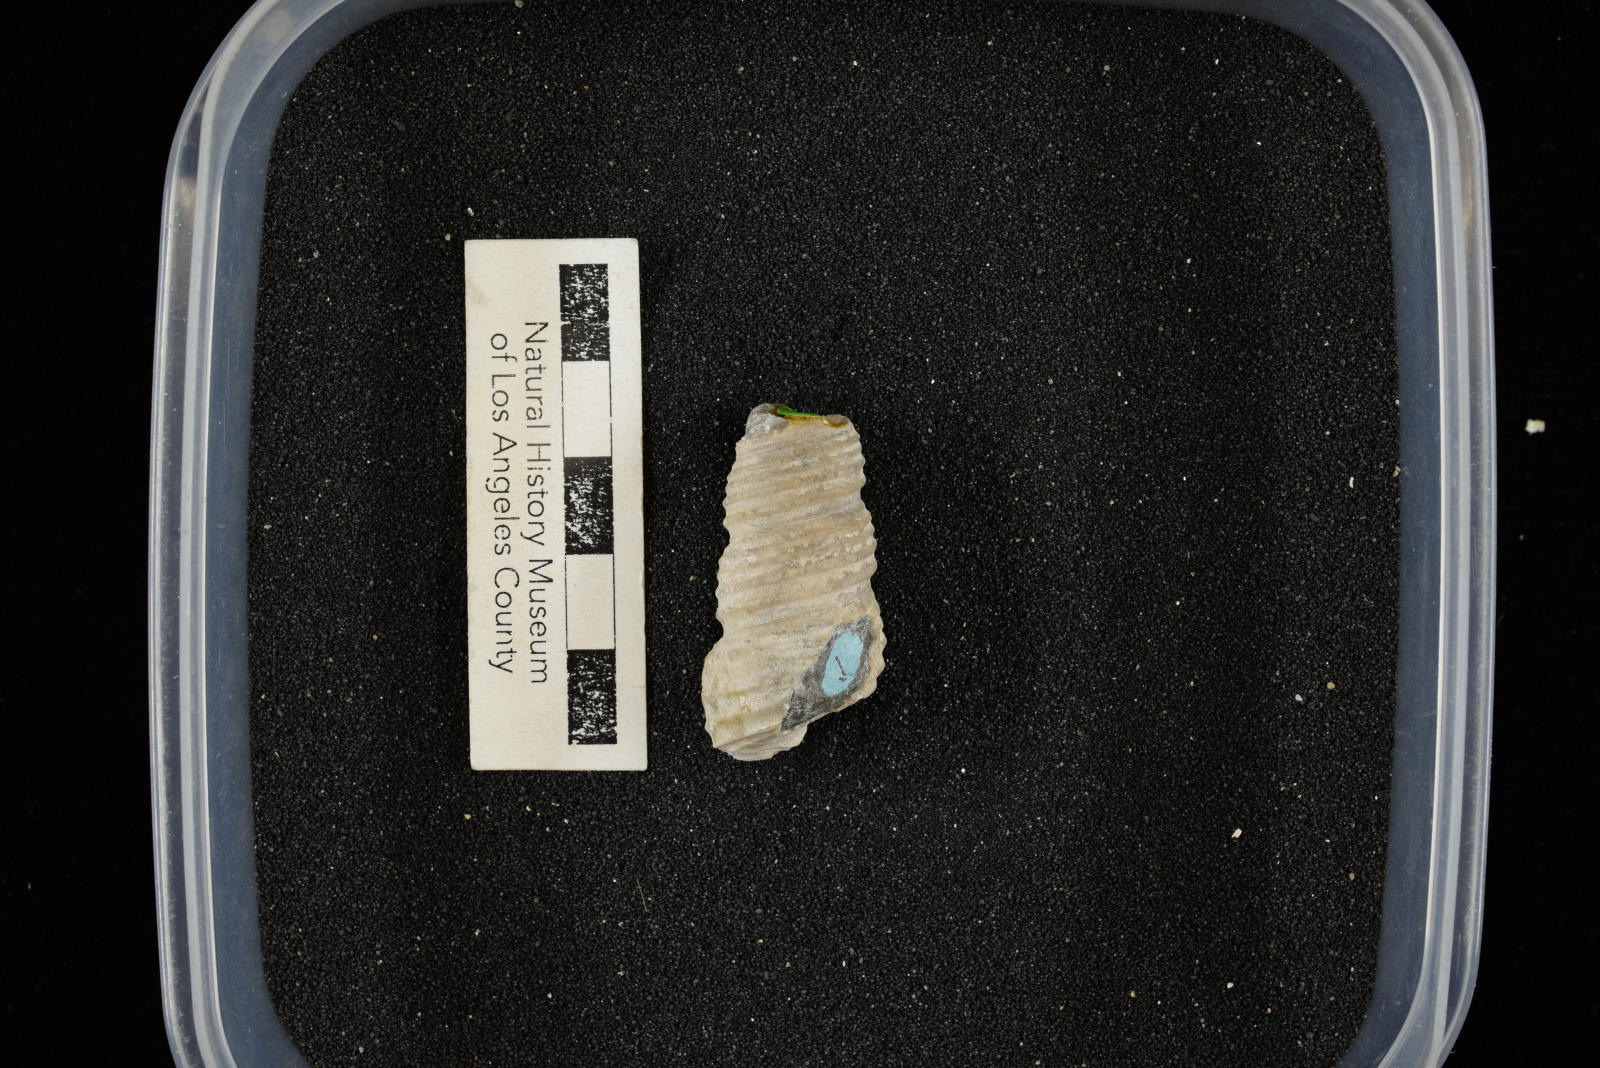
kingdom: Animalia
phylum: Mollusca
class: Gastropoda
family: Turritellidae
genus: Turritella
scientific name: Turritella chicoensis
